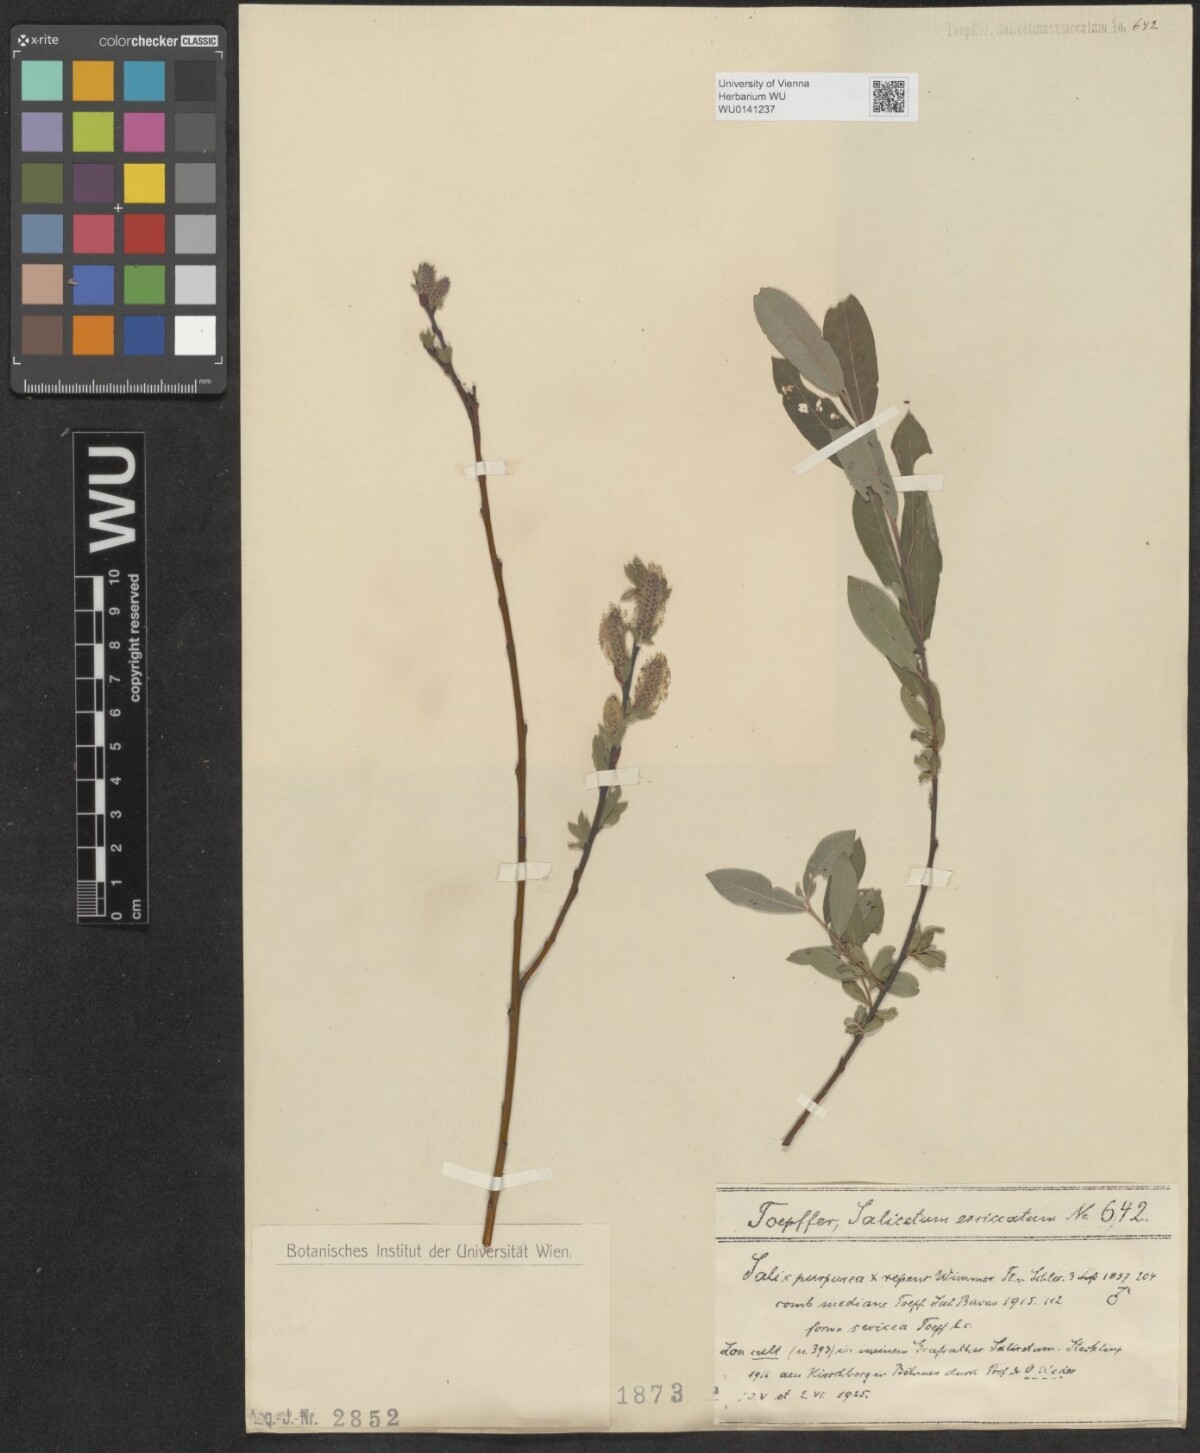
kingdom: Plantae
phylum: Tracheophyta
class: Magnoliopsida
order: Malpighiales
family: Salicaceae
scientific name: Salicaceae
